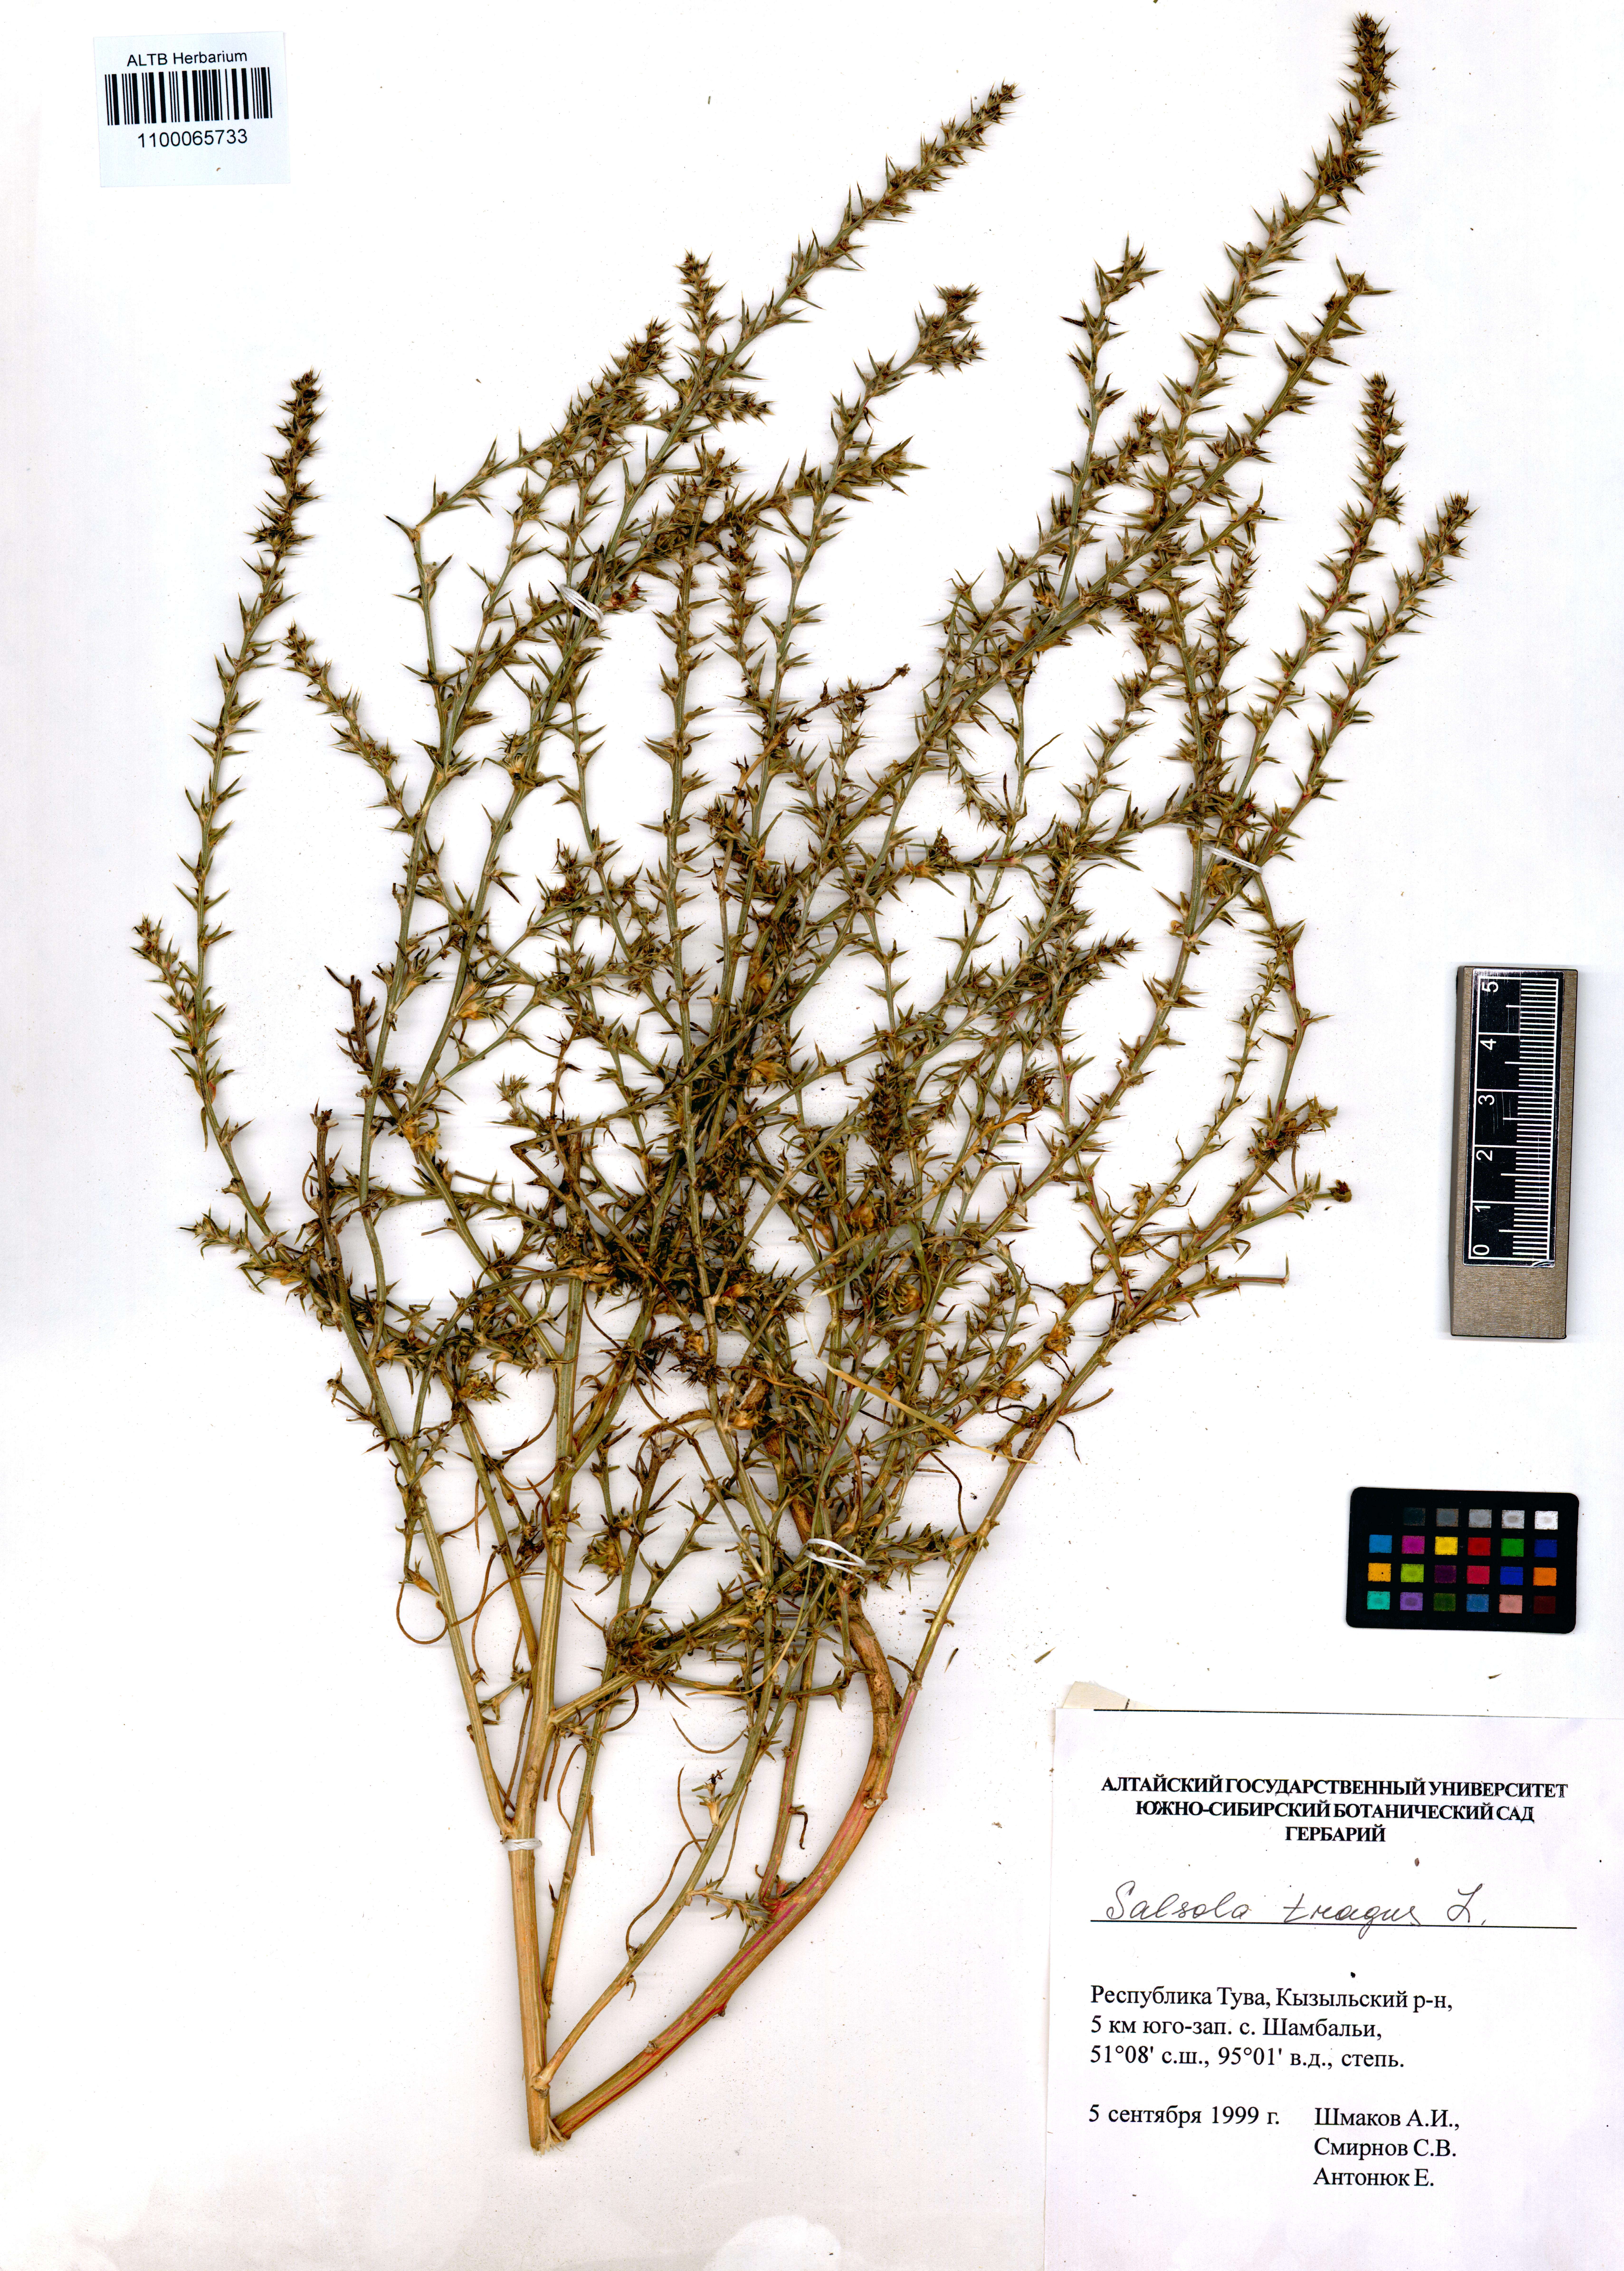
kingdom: Plantae
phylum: Tracheophyta
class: Magnoliopsida
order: Caryophyllales
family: Amaranthaceae
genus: Salsola
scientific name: Salsola tragus
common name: Prickly russian thistle
